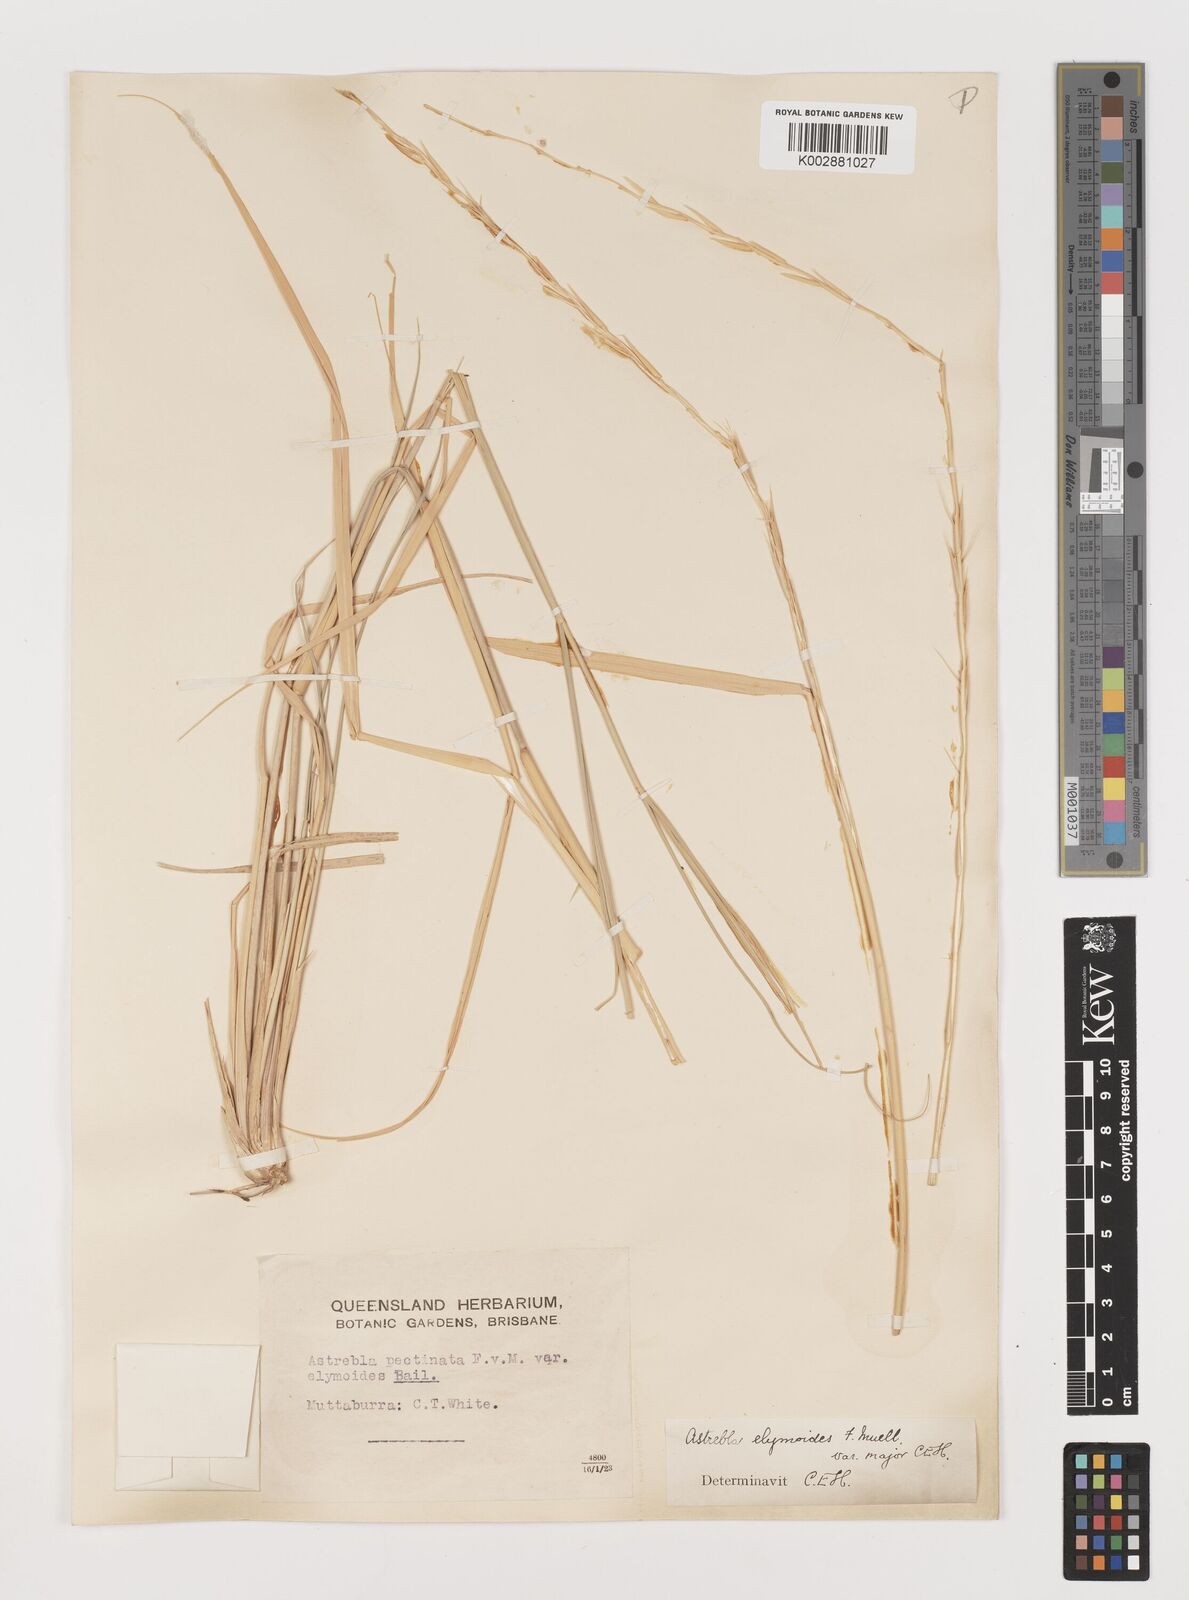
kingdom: Plantae
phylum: Tracheophyta
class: Liliopsida
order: Poales
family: Poaceae
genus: Astrebla
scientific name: Astrebla elymoides
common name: Hoop mitchell grass
